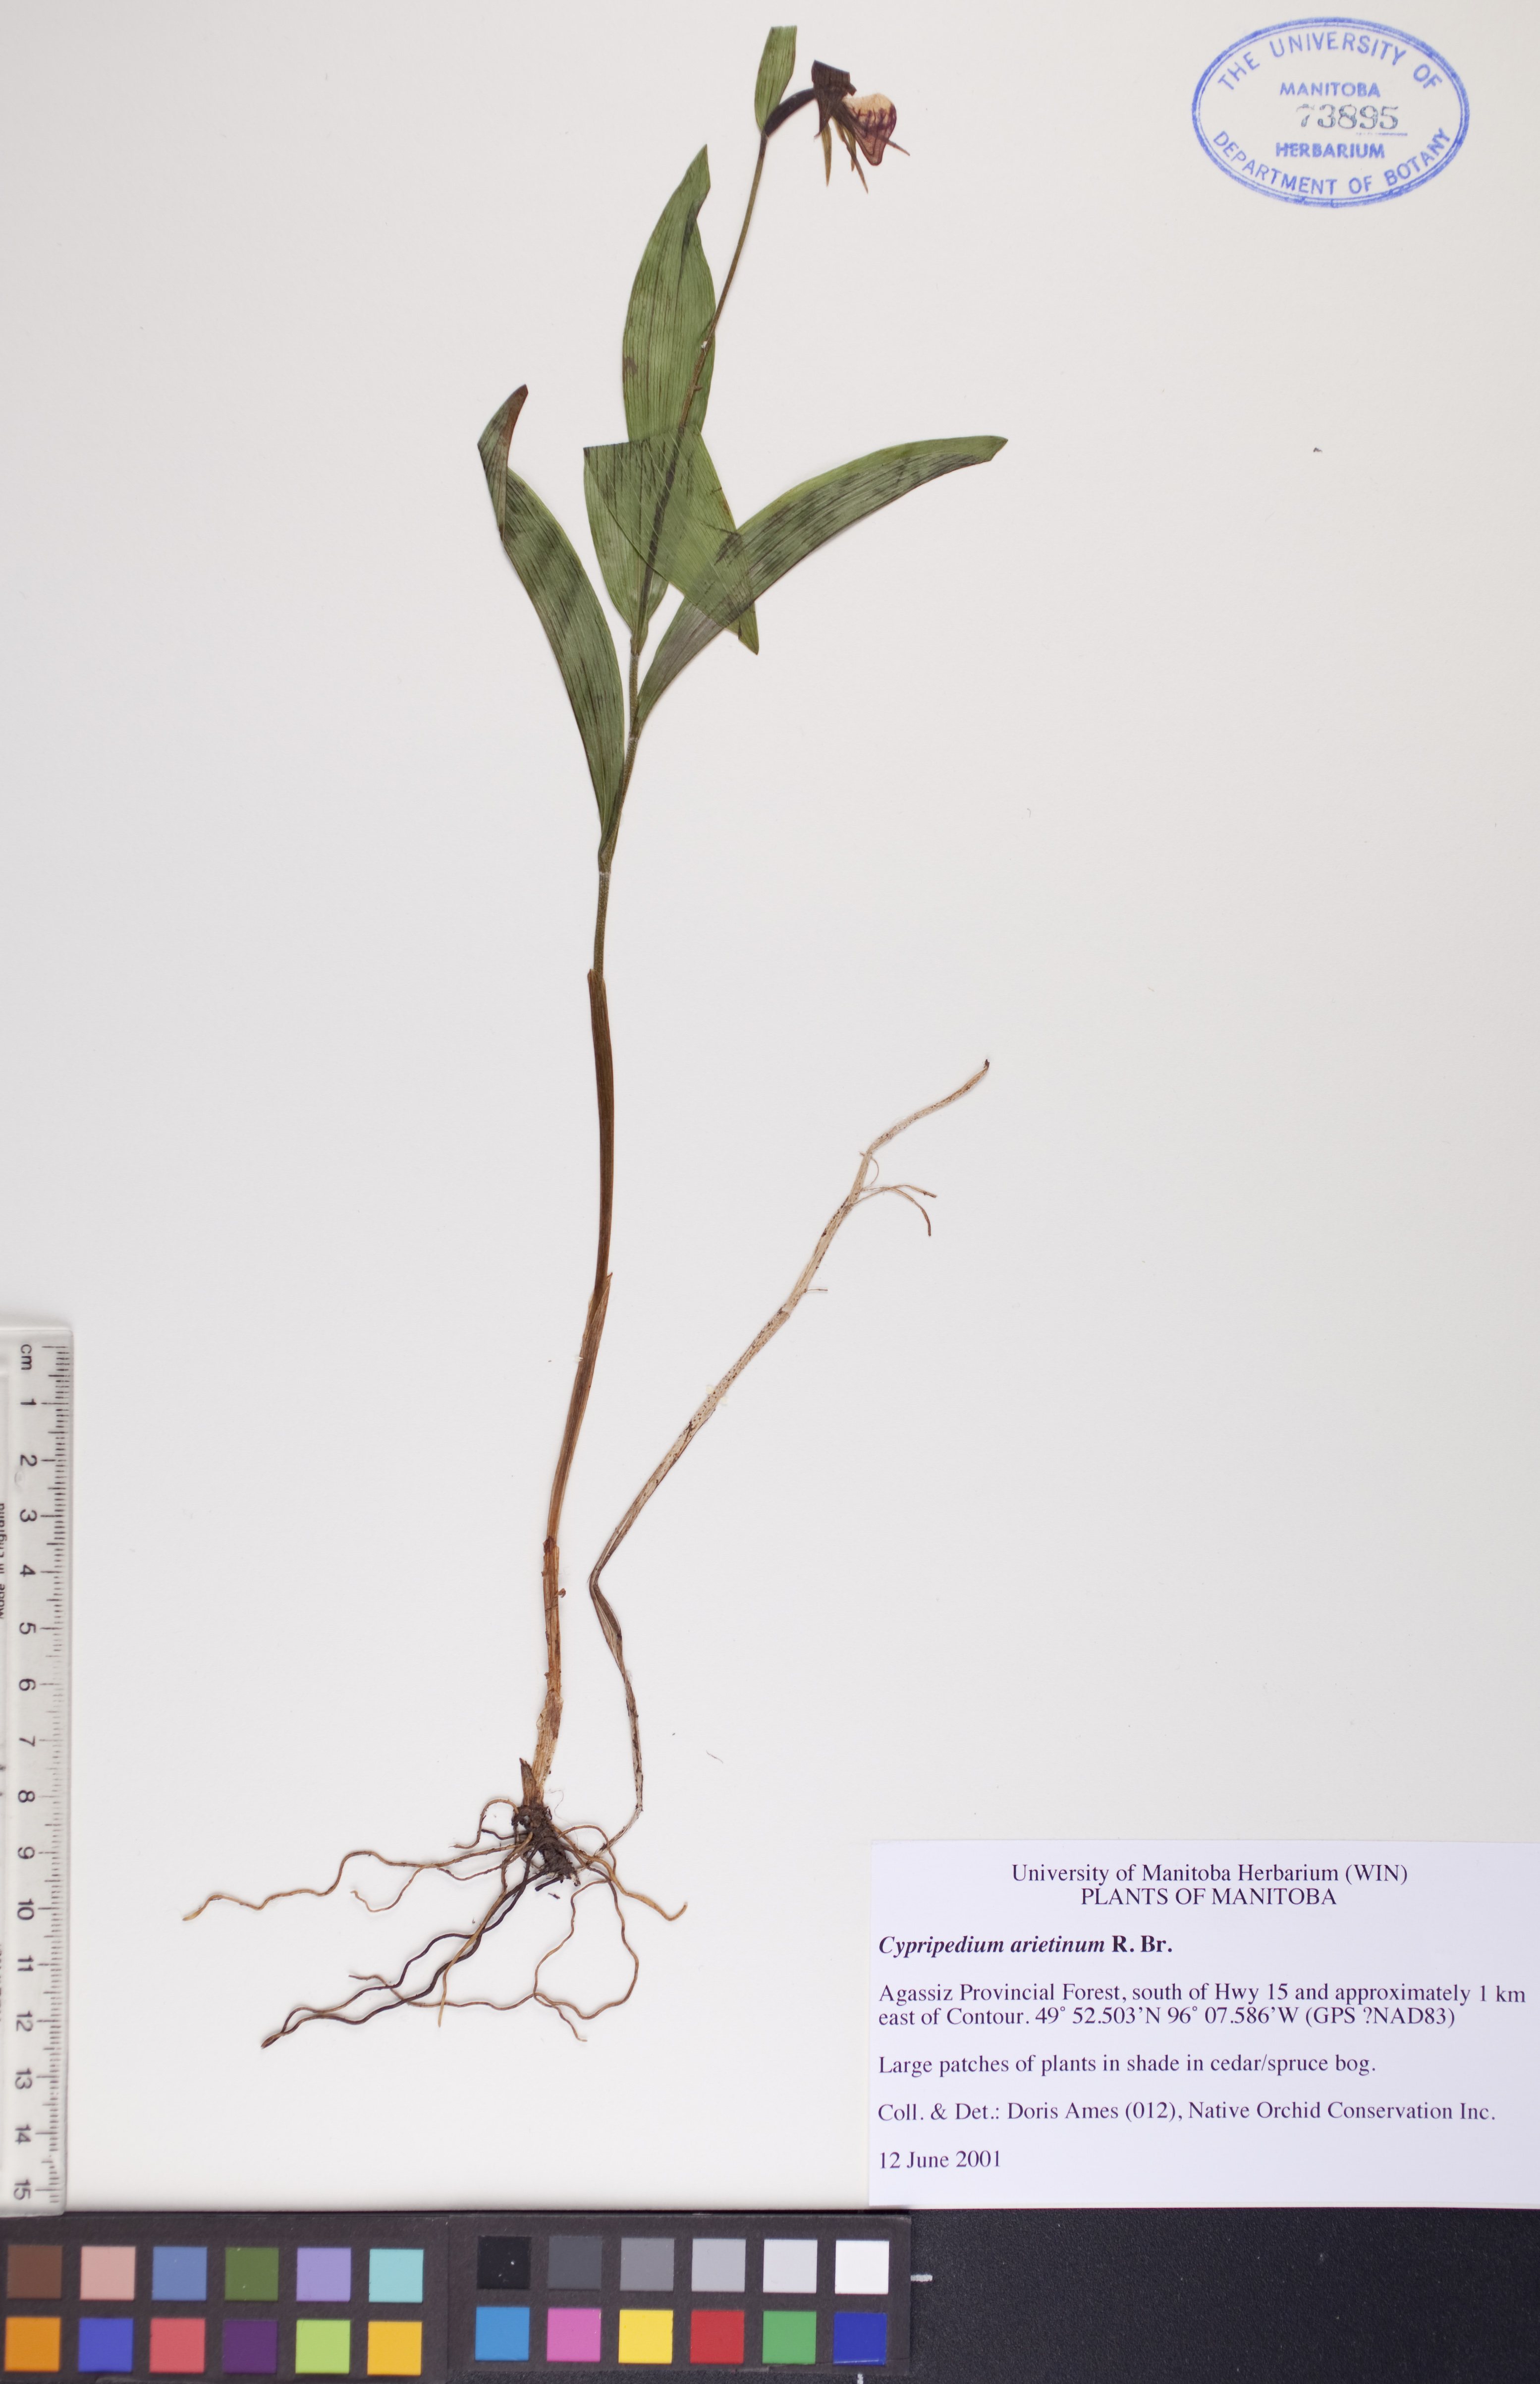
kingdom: Plantae
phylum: Tracheophyta
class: Liliopsida
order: Asparagales
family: Orchidaceae
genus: Cypripedium
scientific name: Cypripedium arietinum
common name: Ram's-head
